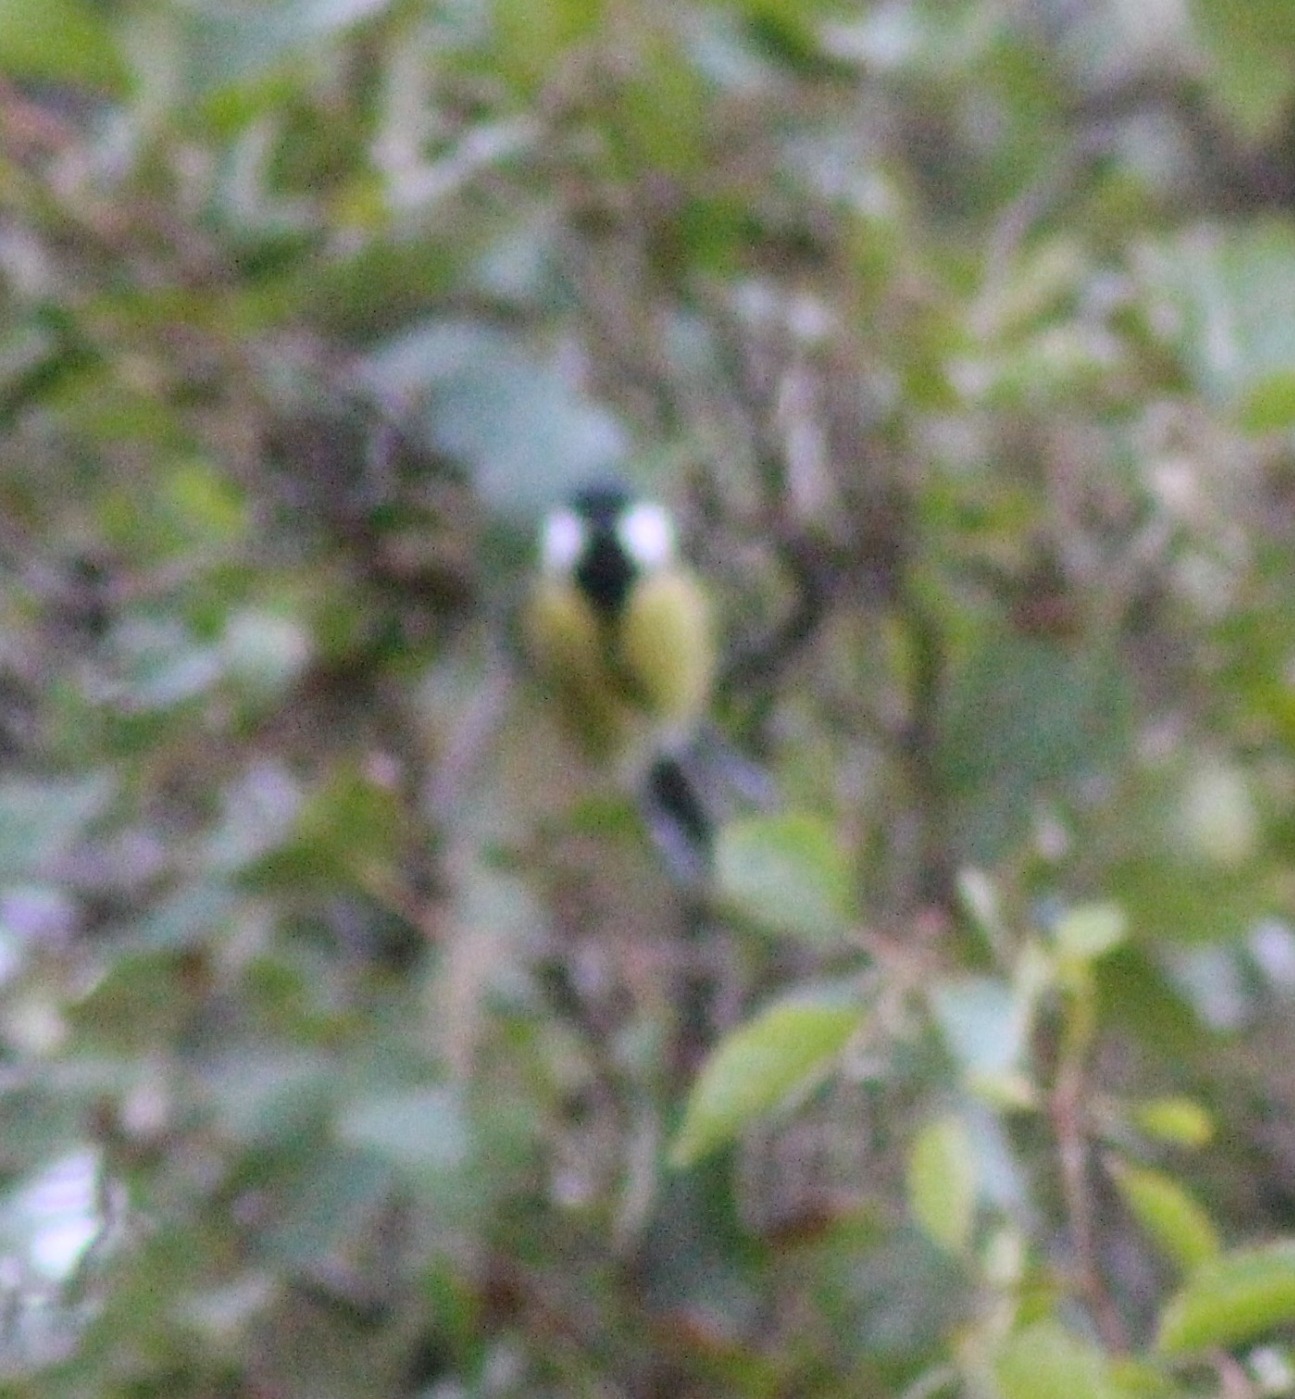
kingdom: Animalia
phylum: Chordata
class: Aves
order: Passeriformes
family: Paridae
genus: Parus
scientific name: Parus major
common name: Musvit
